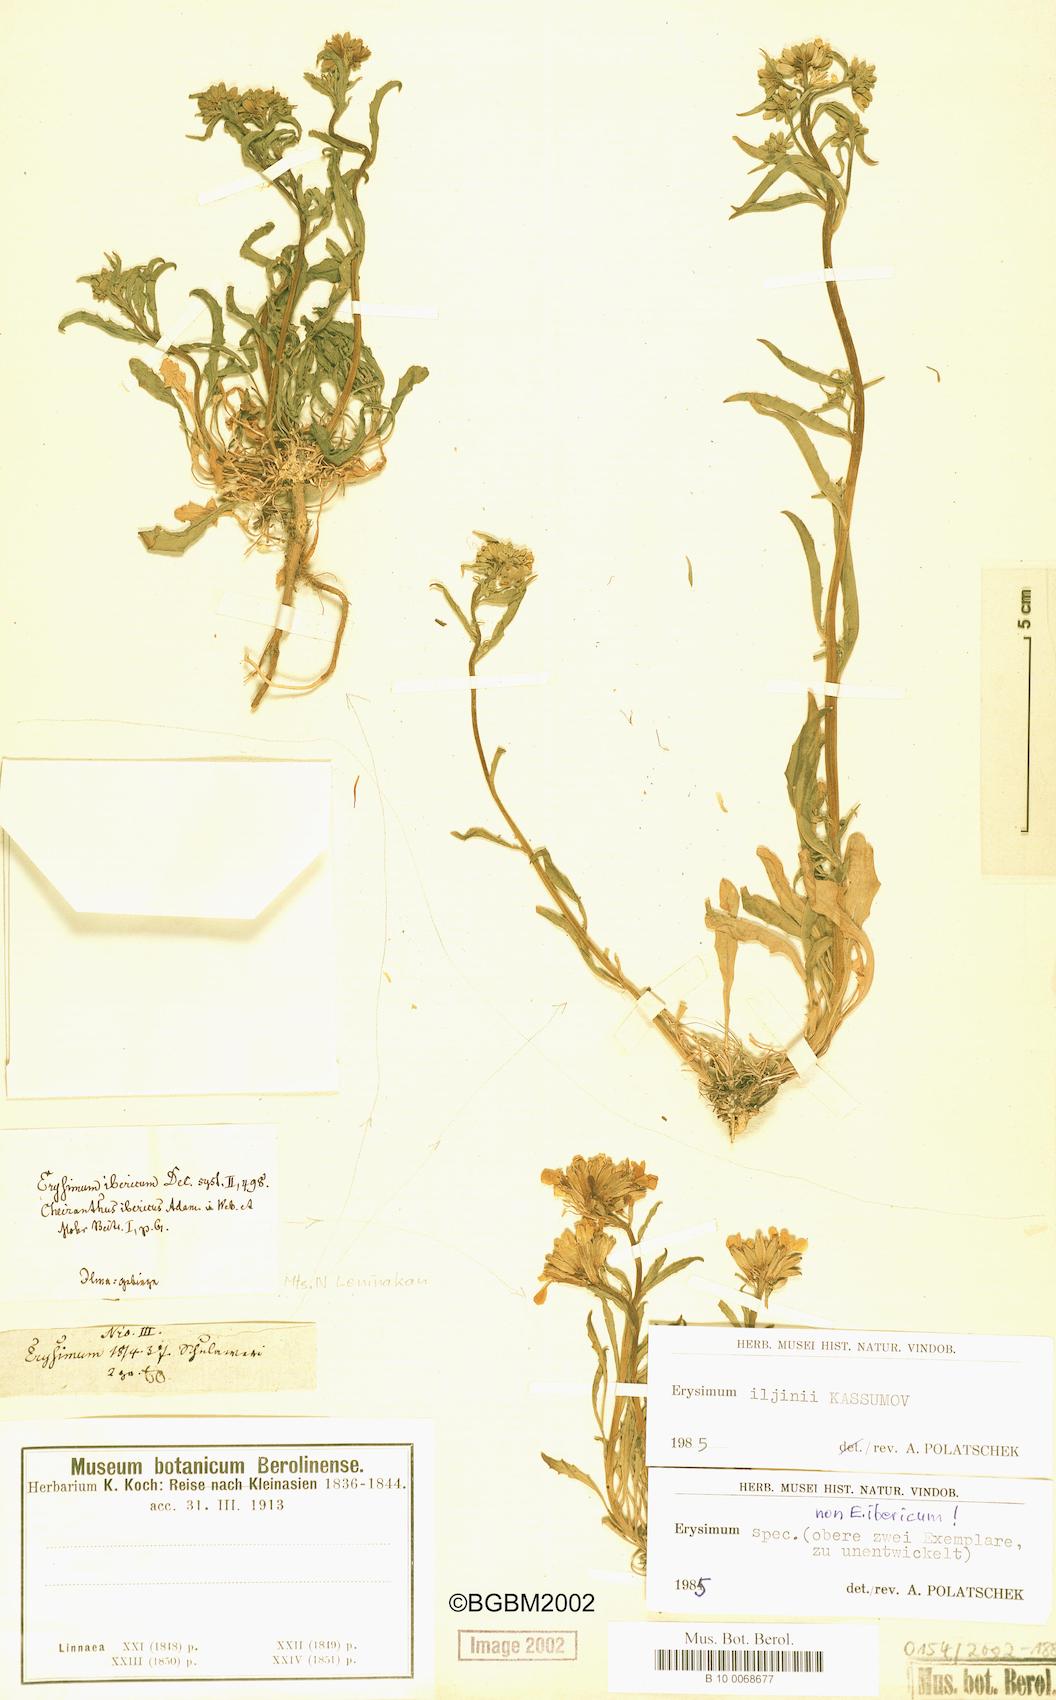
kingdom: Plantae
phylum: Tracheophyta
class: Magnoliopsida
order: Brassicales
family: Brassicaceae
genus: Erysimum
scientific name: Erysimum chazarjurti
